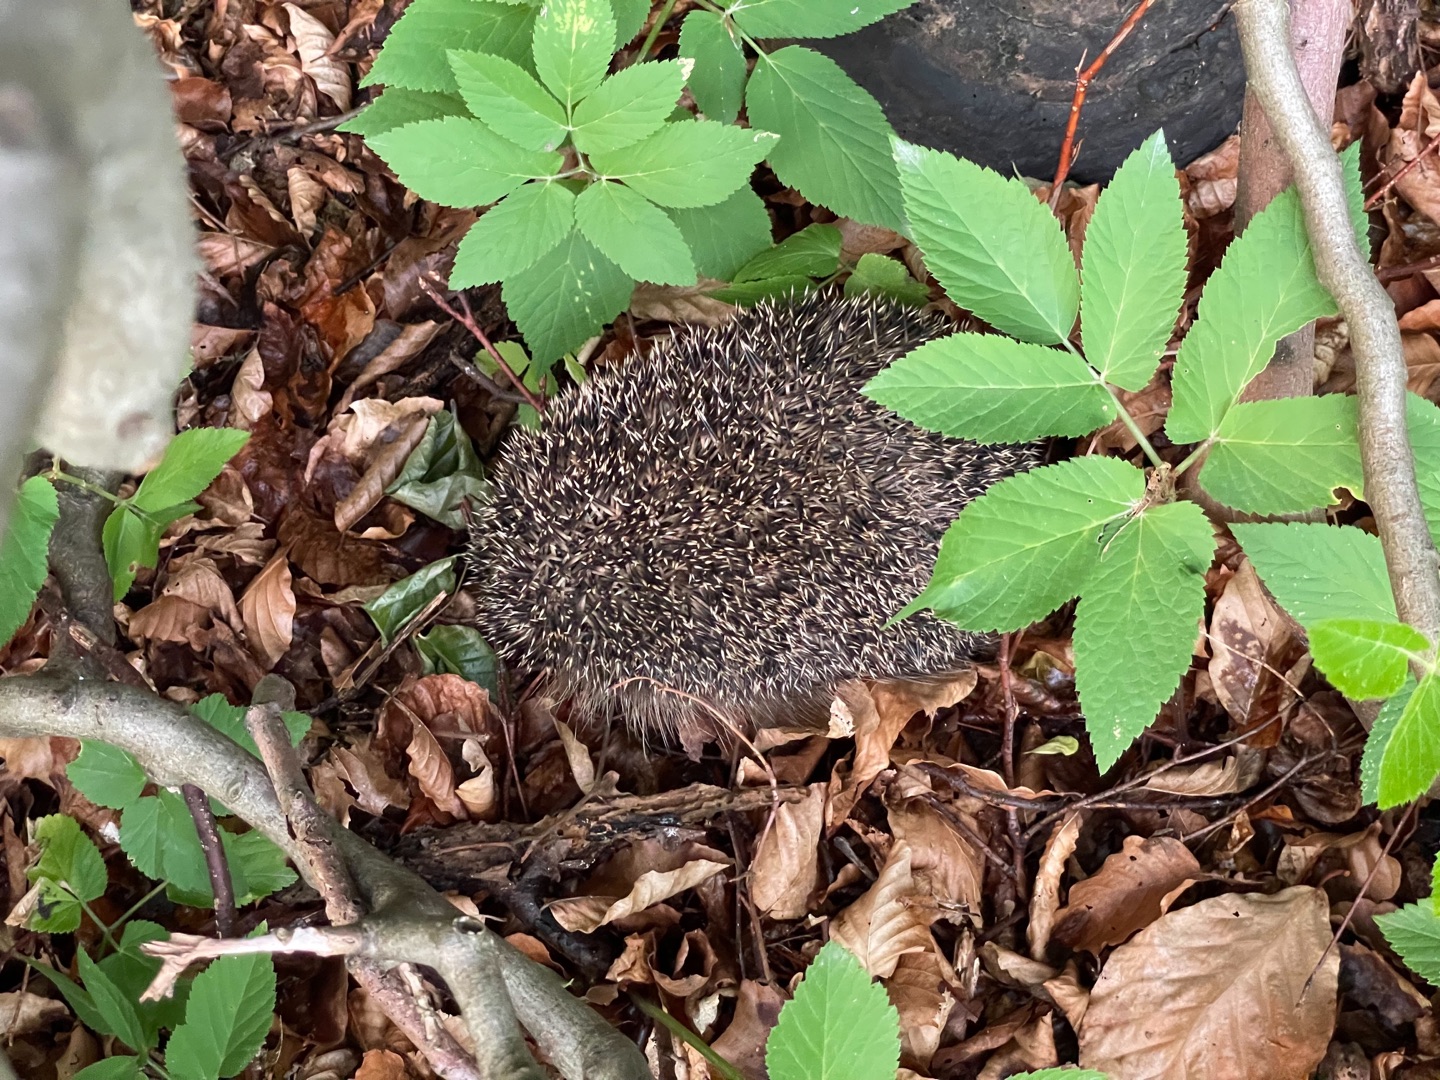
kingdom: Animalia
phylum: Chordata
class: Mammalia
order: Erinaceomorpha
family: Erinaceidae
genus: Erinaceus
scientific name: Erinaceus europaeus
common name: Pindsvin
